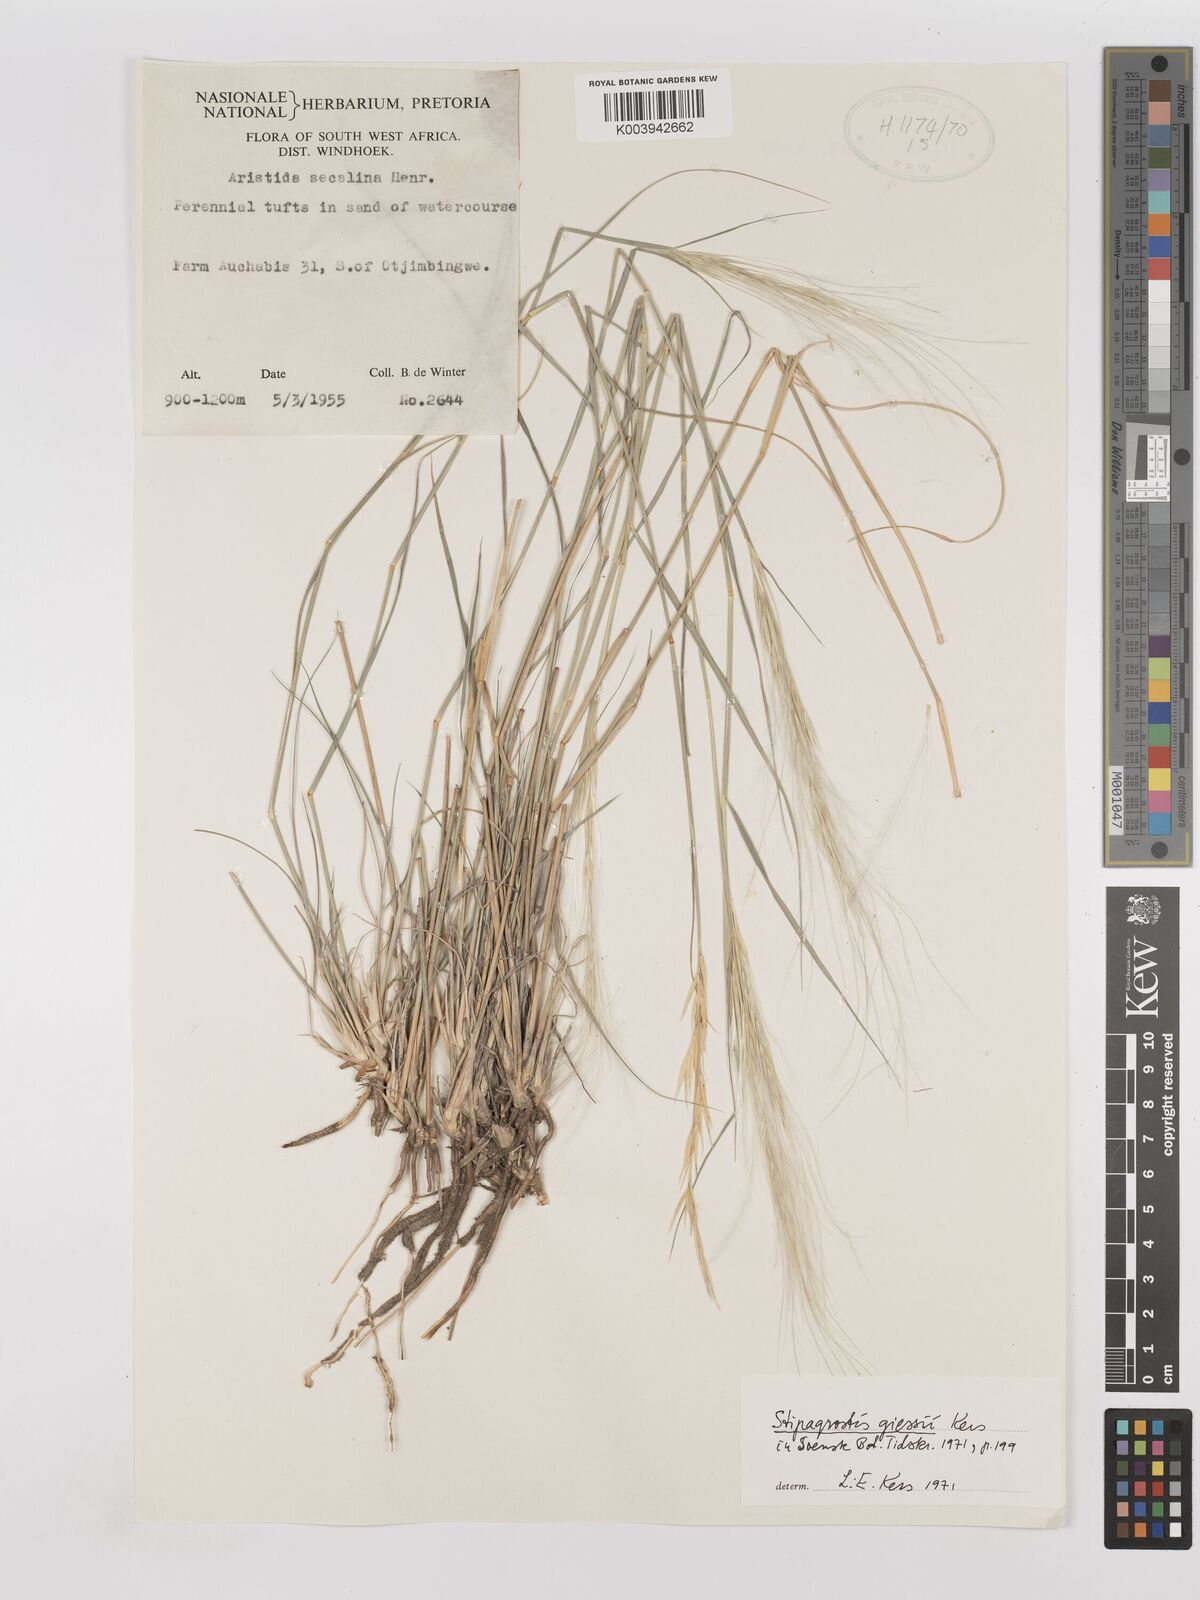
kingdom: Plantae
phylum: Tracheophyta
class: Liliopsida
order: Poales
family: Poaceae
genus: Stipagrostis
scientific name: Stipagrostis giessii
